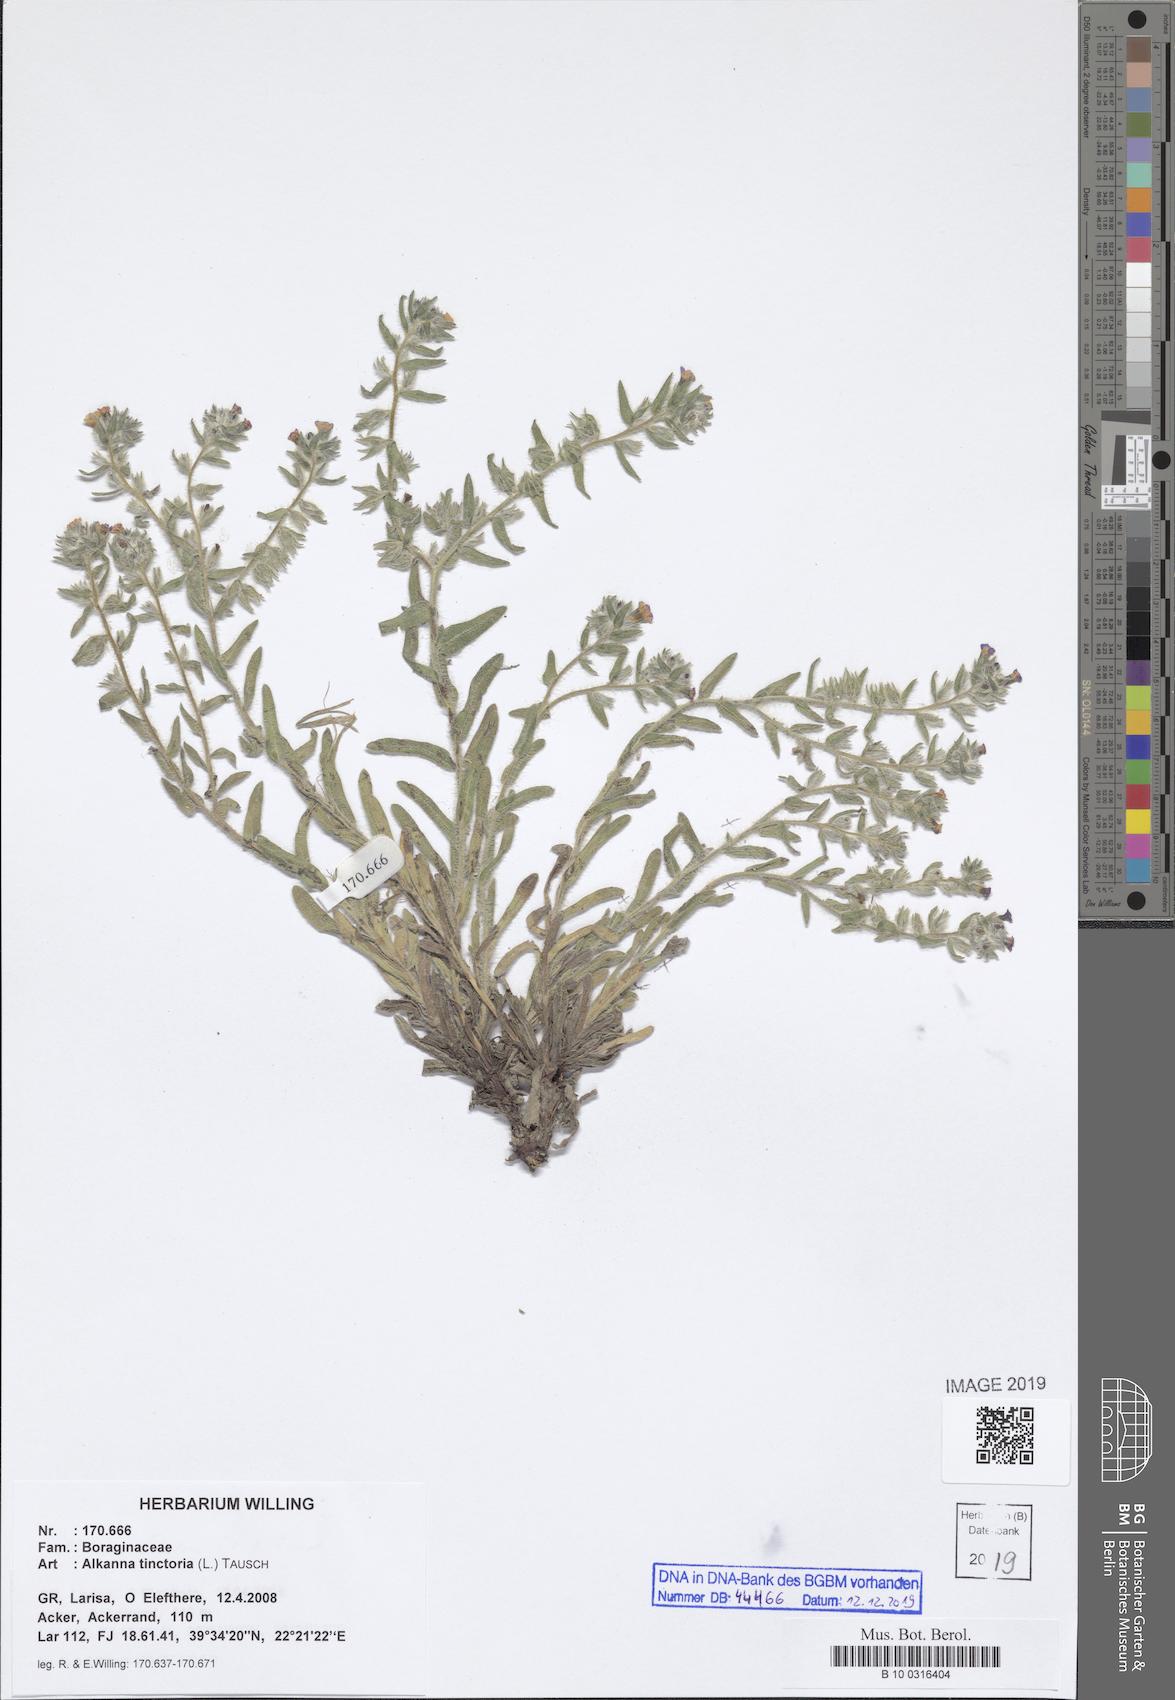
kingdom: Plantae
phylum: Tracheophyta
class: Magnoliopsida
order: Boraginales
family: Boraginaceae
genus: Alkanna
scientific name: Alkanna tinctoria
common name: Dyer's-alkanet
